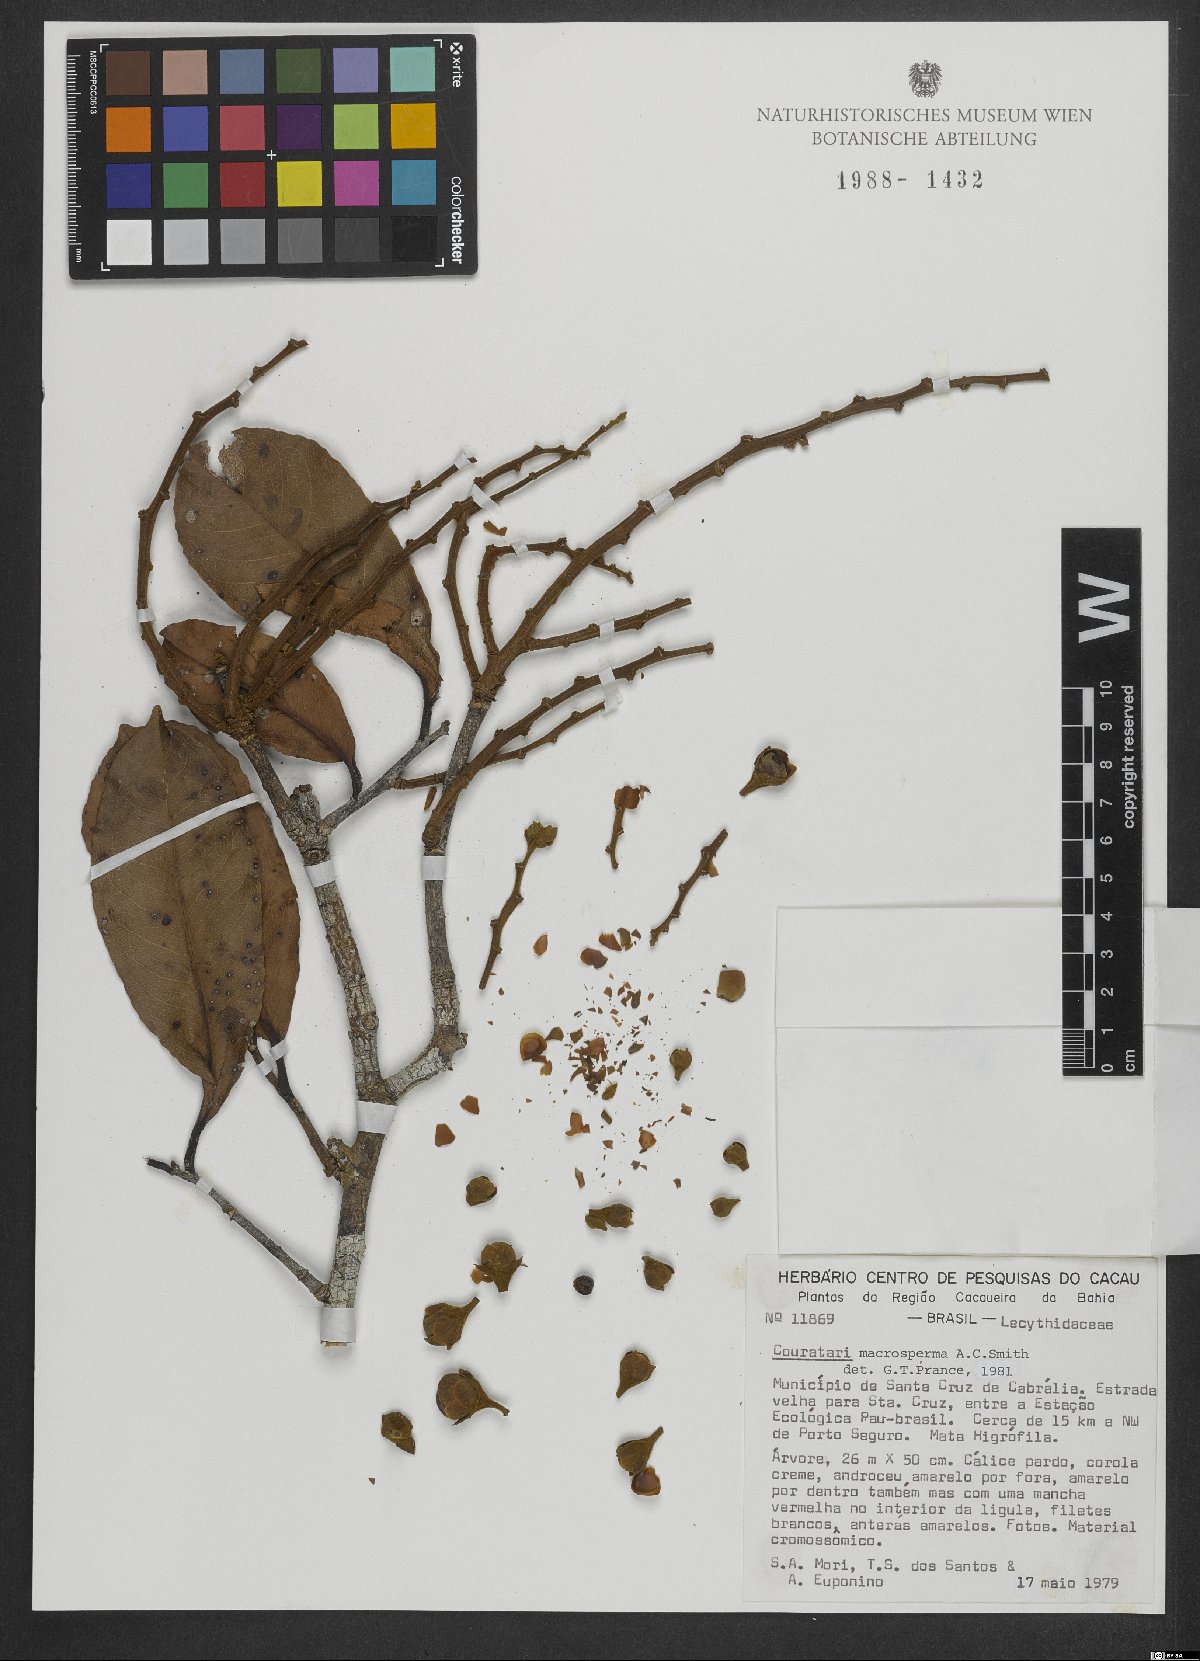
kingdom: Plantae
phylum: Tracheophyta
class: Magnoliopsida
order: Ericales
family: Lecythidaceae
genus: Couratari
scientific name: Couratari macrosperma
